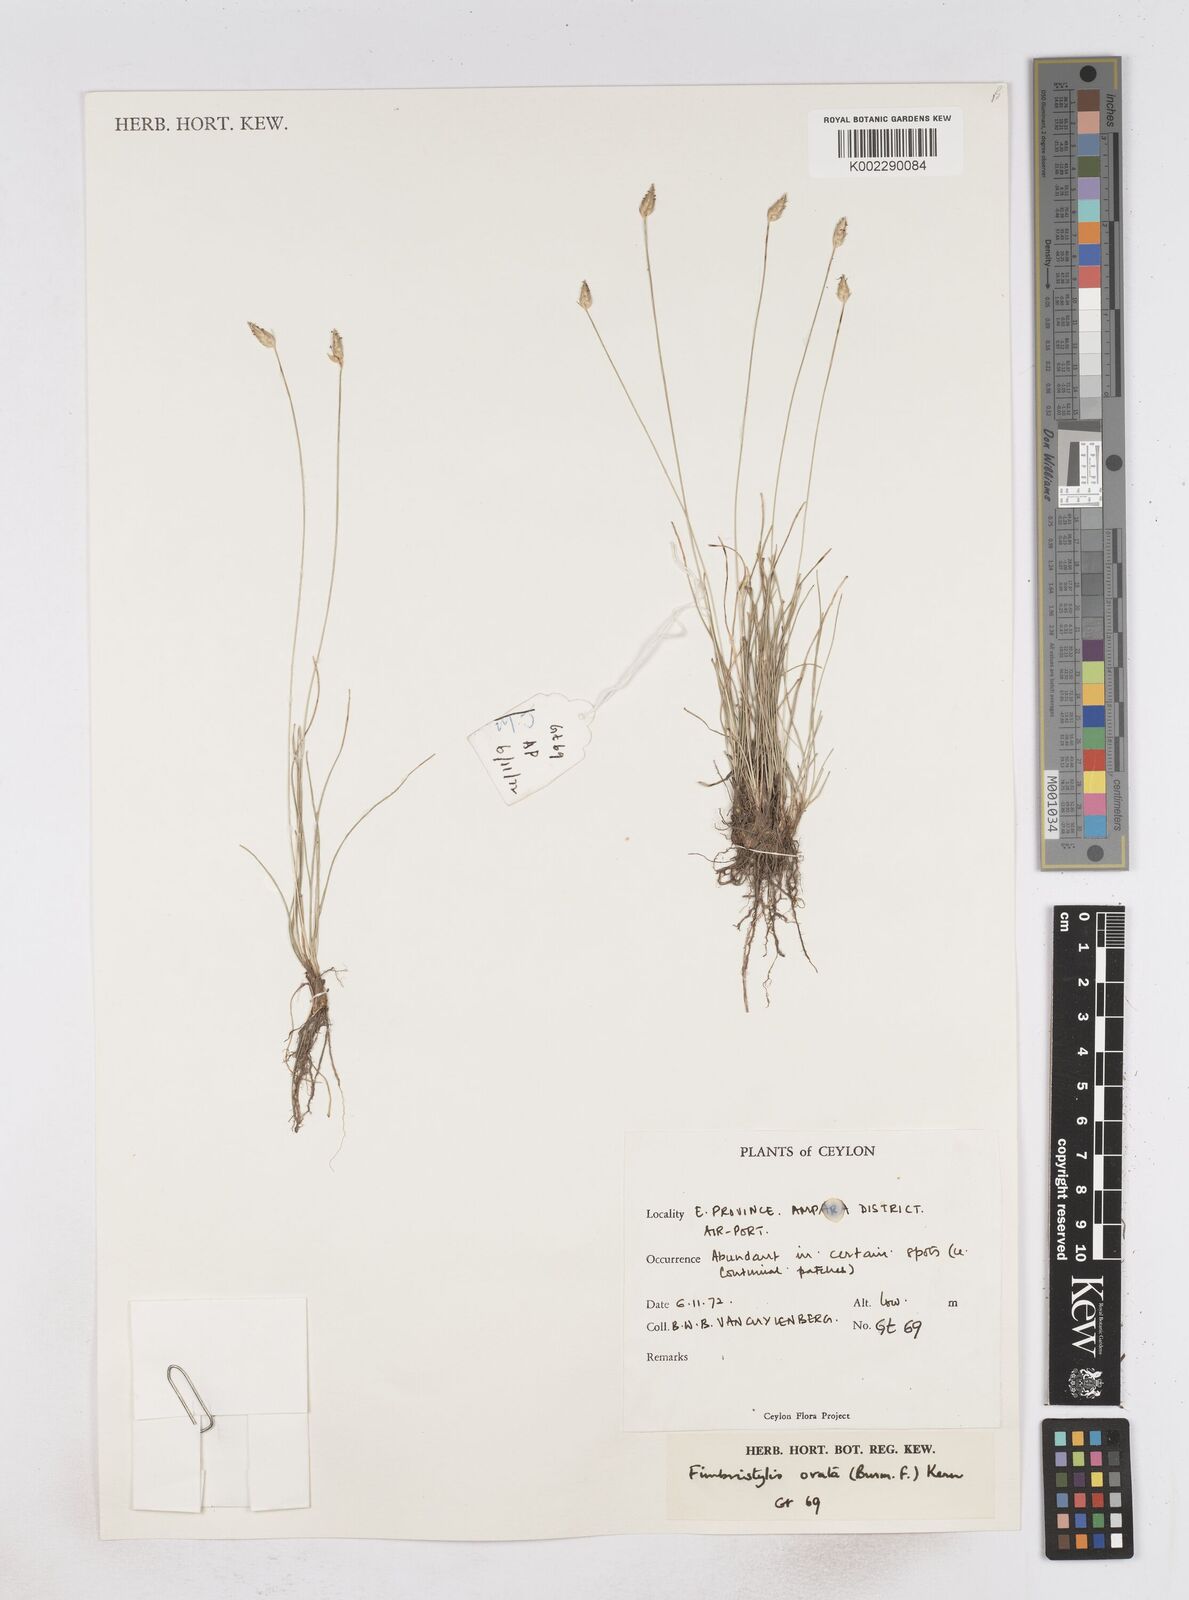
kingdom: Plantae
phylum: Tracheophyta
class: Liliopsida
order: Poales
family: Cyperaceae
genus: Abildgaardia
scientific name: Abildgaardia ovata
